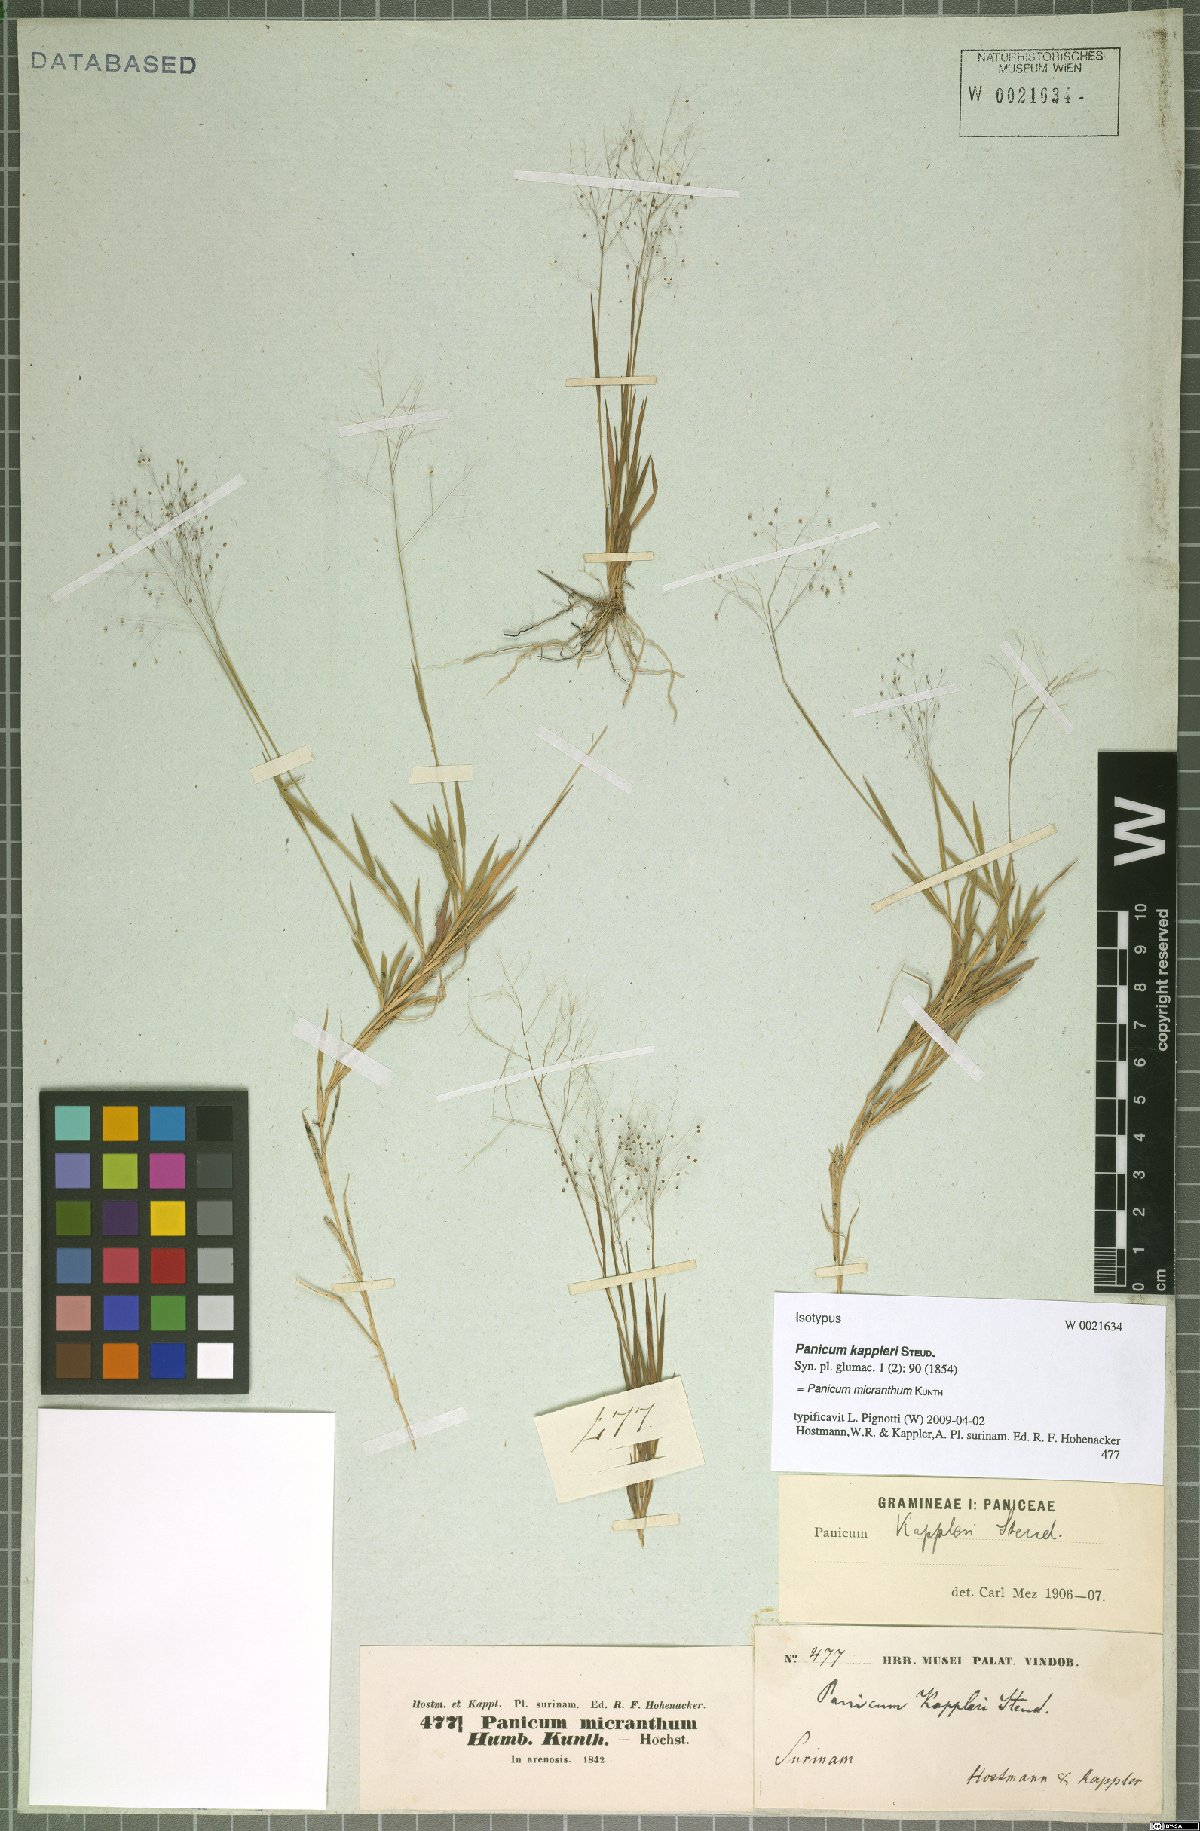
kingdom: Plantae
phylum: Tracheophyta
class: Liliopsida
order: Poales
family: Poaceae
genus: Trichanthecium
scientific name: Trichanthecium micranthum
